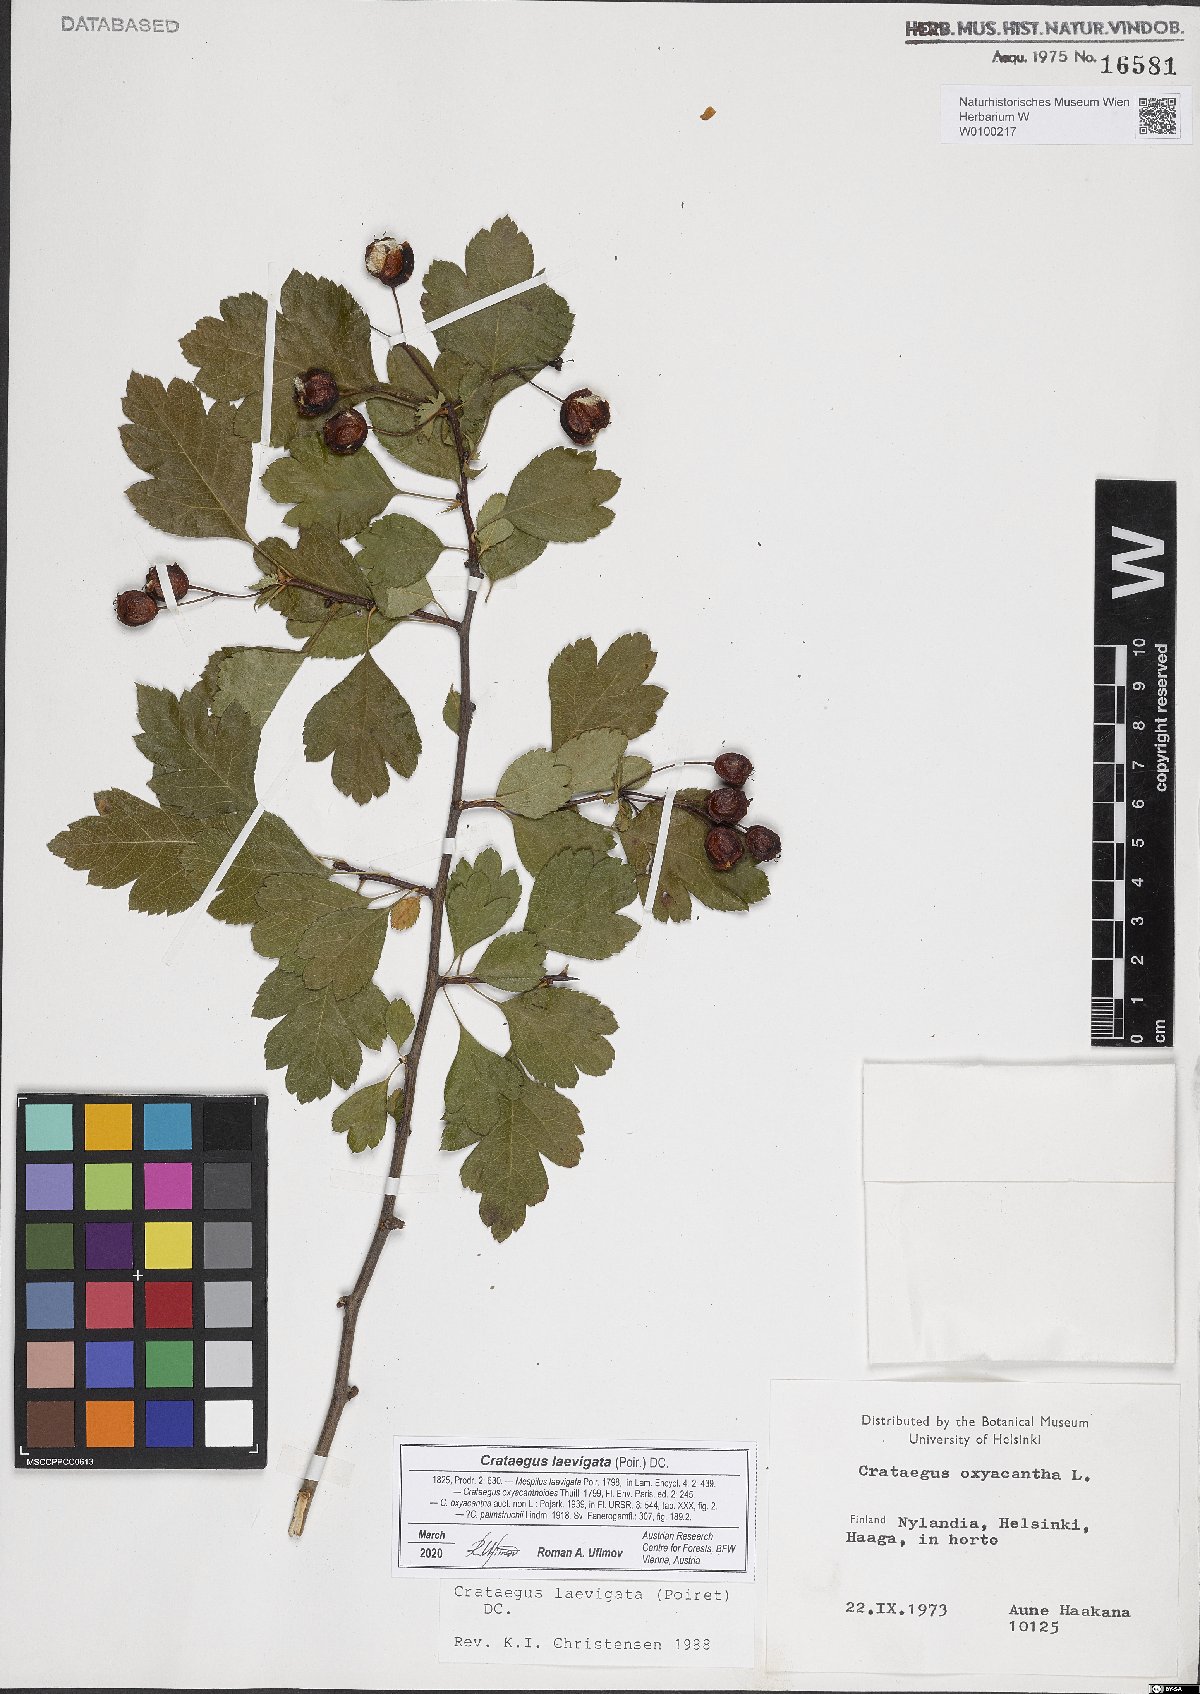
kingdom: Plantae
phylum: Tracheophyta
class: Magnoliopsida
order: Rosales
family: Rosaceae
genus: Crataegus
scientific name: Crataegus laevigata
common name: Midland hawthorn
